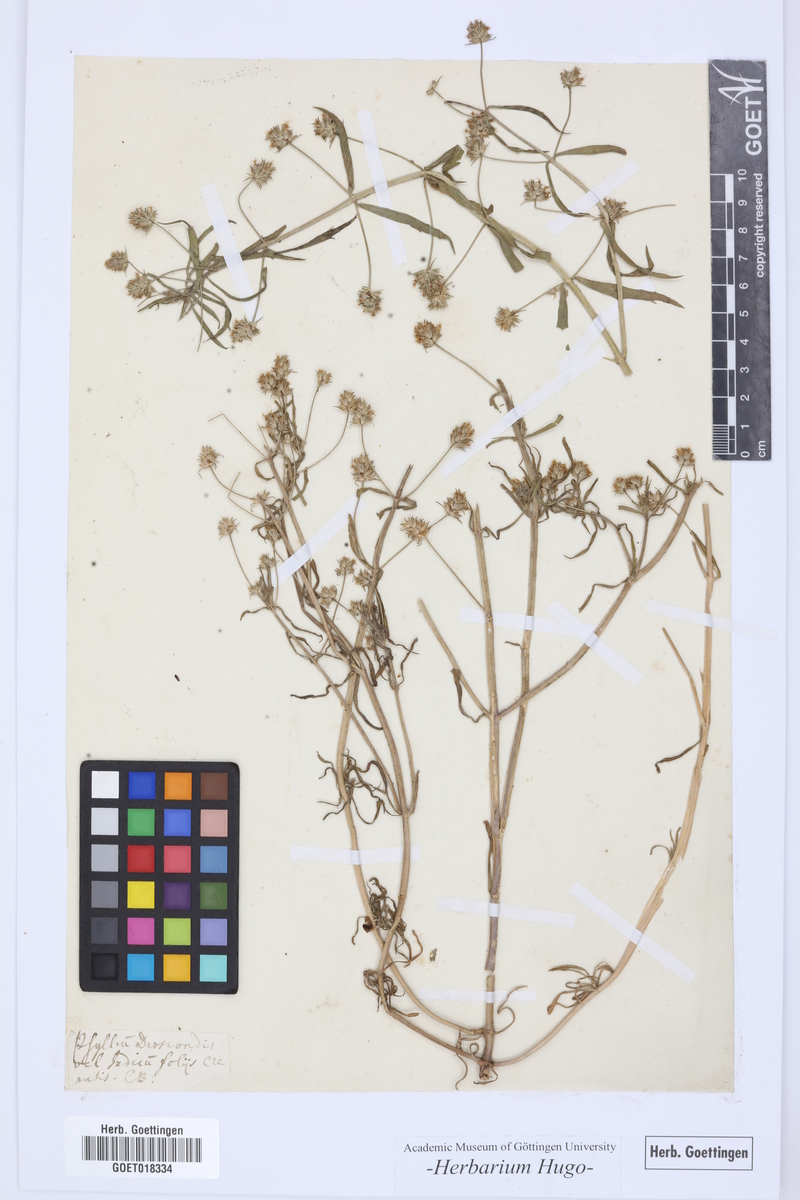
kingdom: Plantae
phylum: Tracheophyta
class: Magnoliopsida
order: Lamiales
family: Plantaginaceae
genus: Plantago
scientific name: Plantago afra
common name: Glandular plantain
